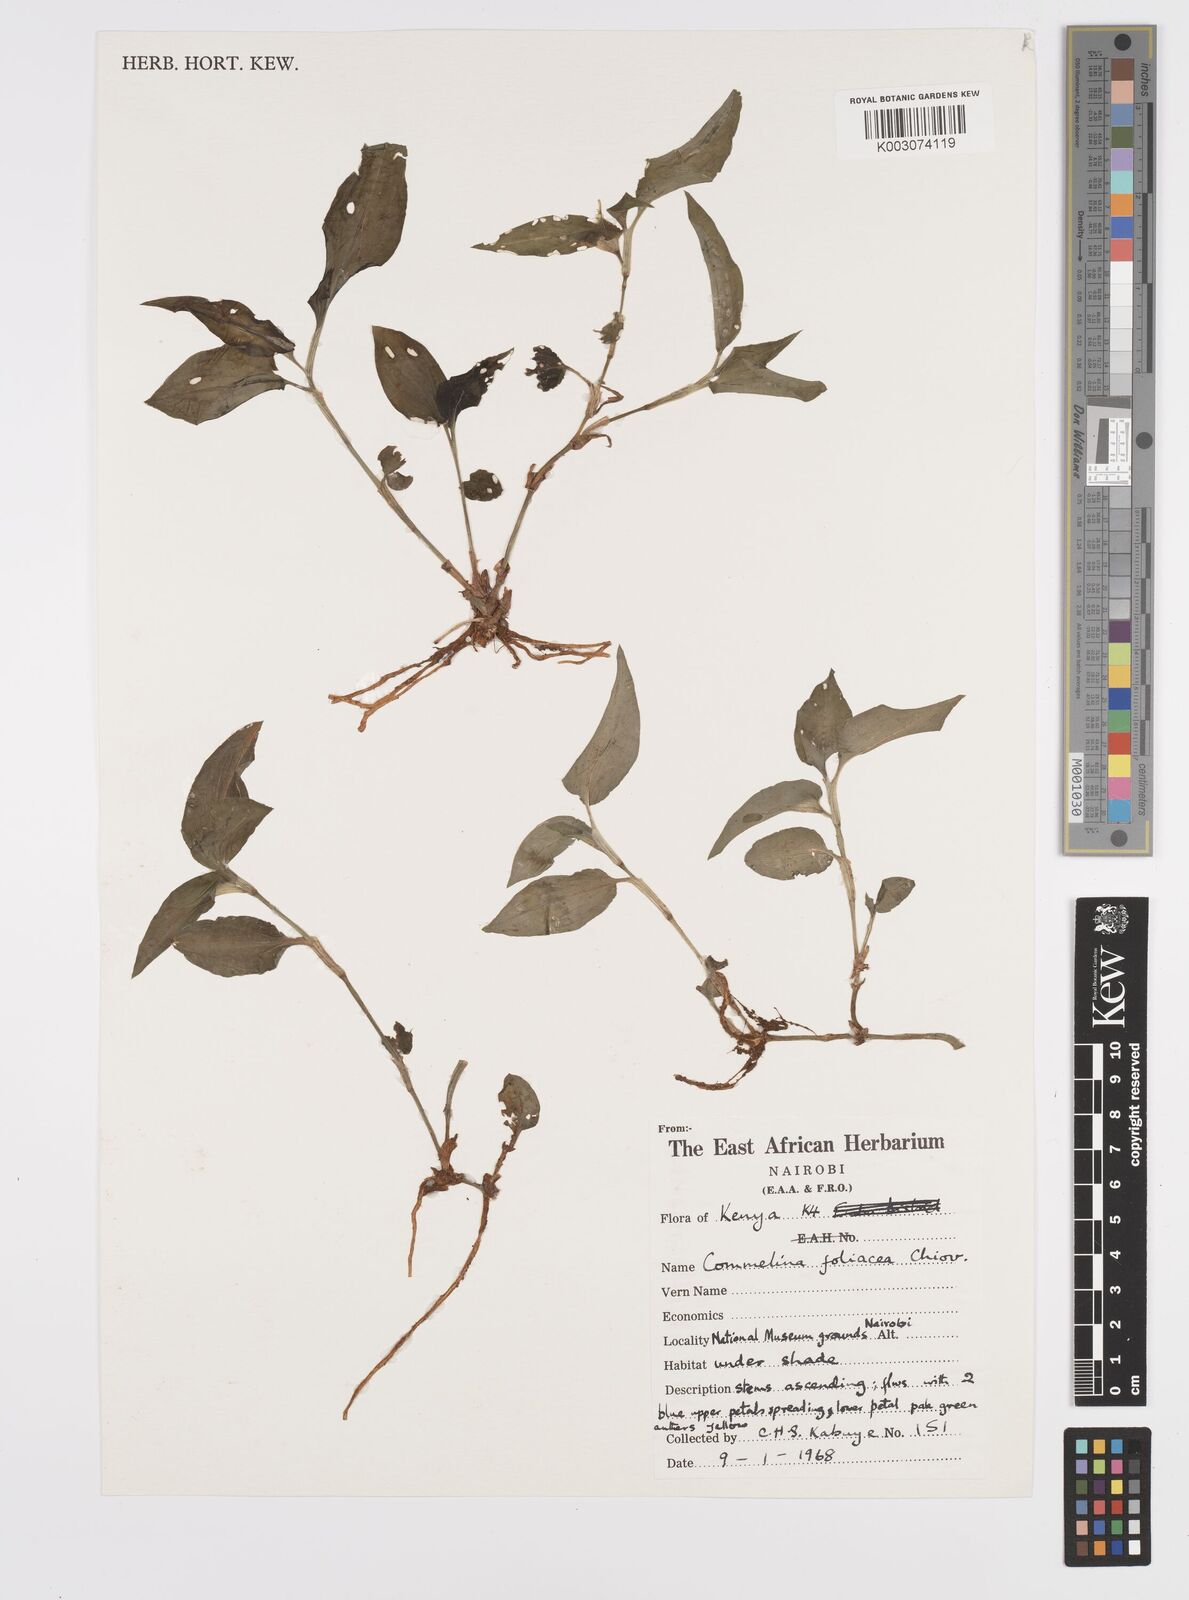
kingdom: Plantae
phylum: Tracheophyta
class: Liliopsida
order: Commelinales
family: Commelinaceae
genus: Commelina
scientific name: Commelina foliacea
